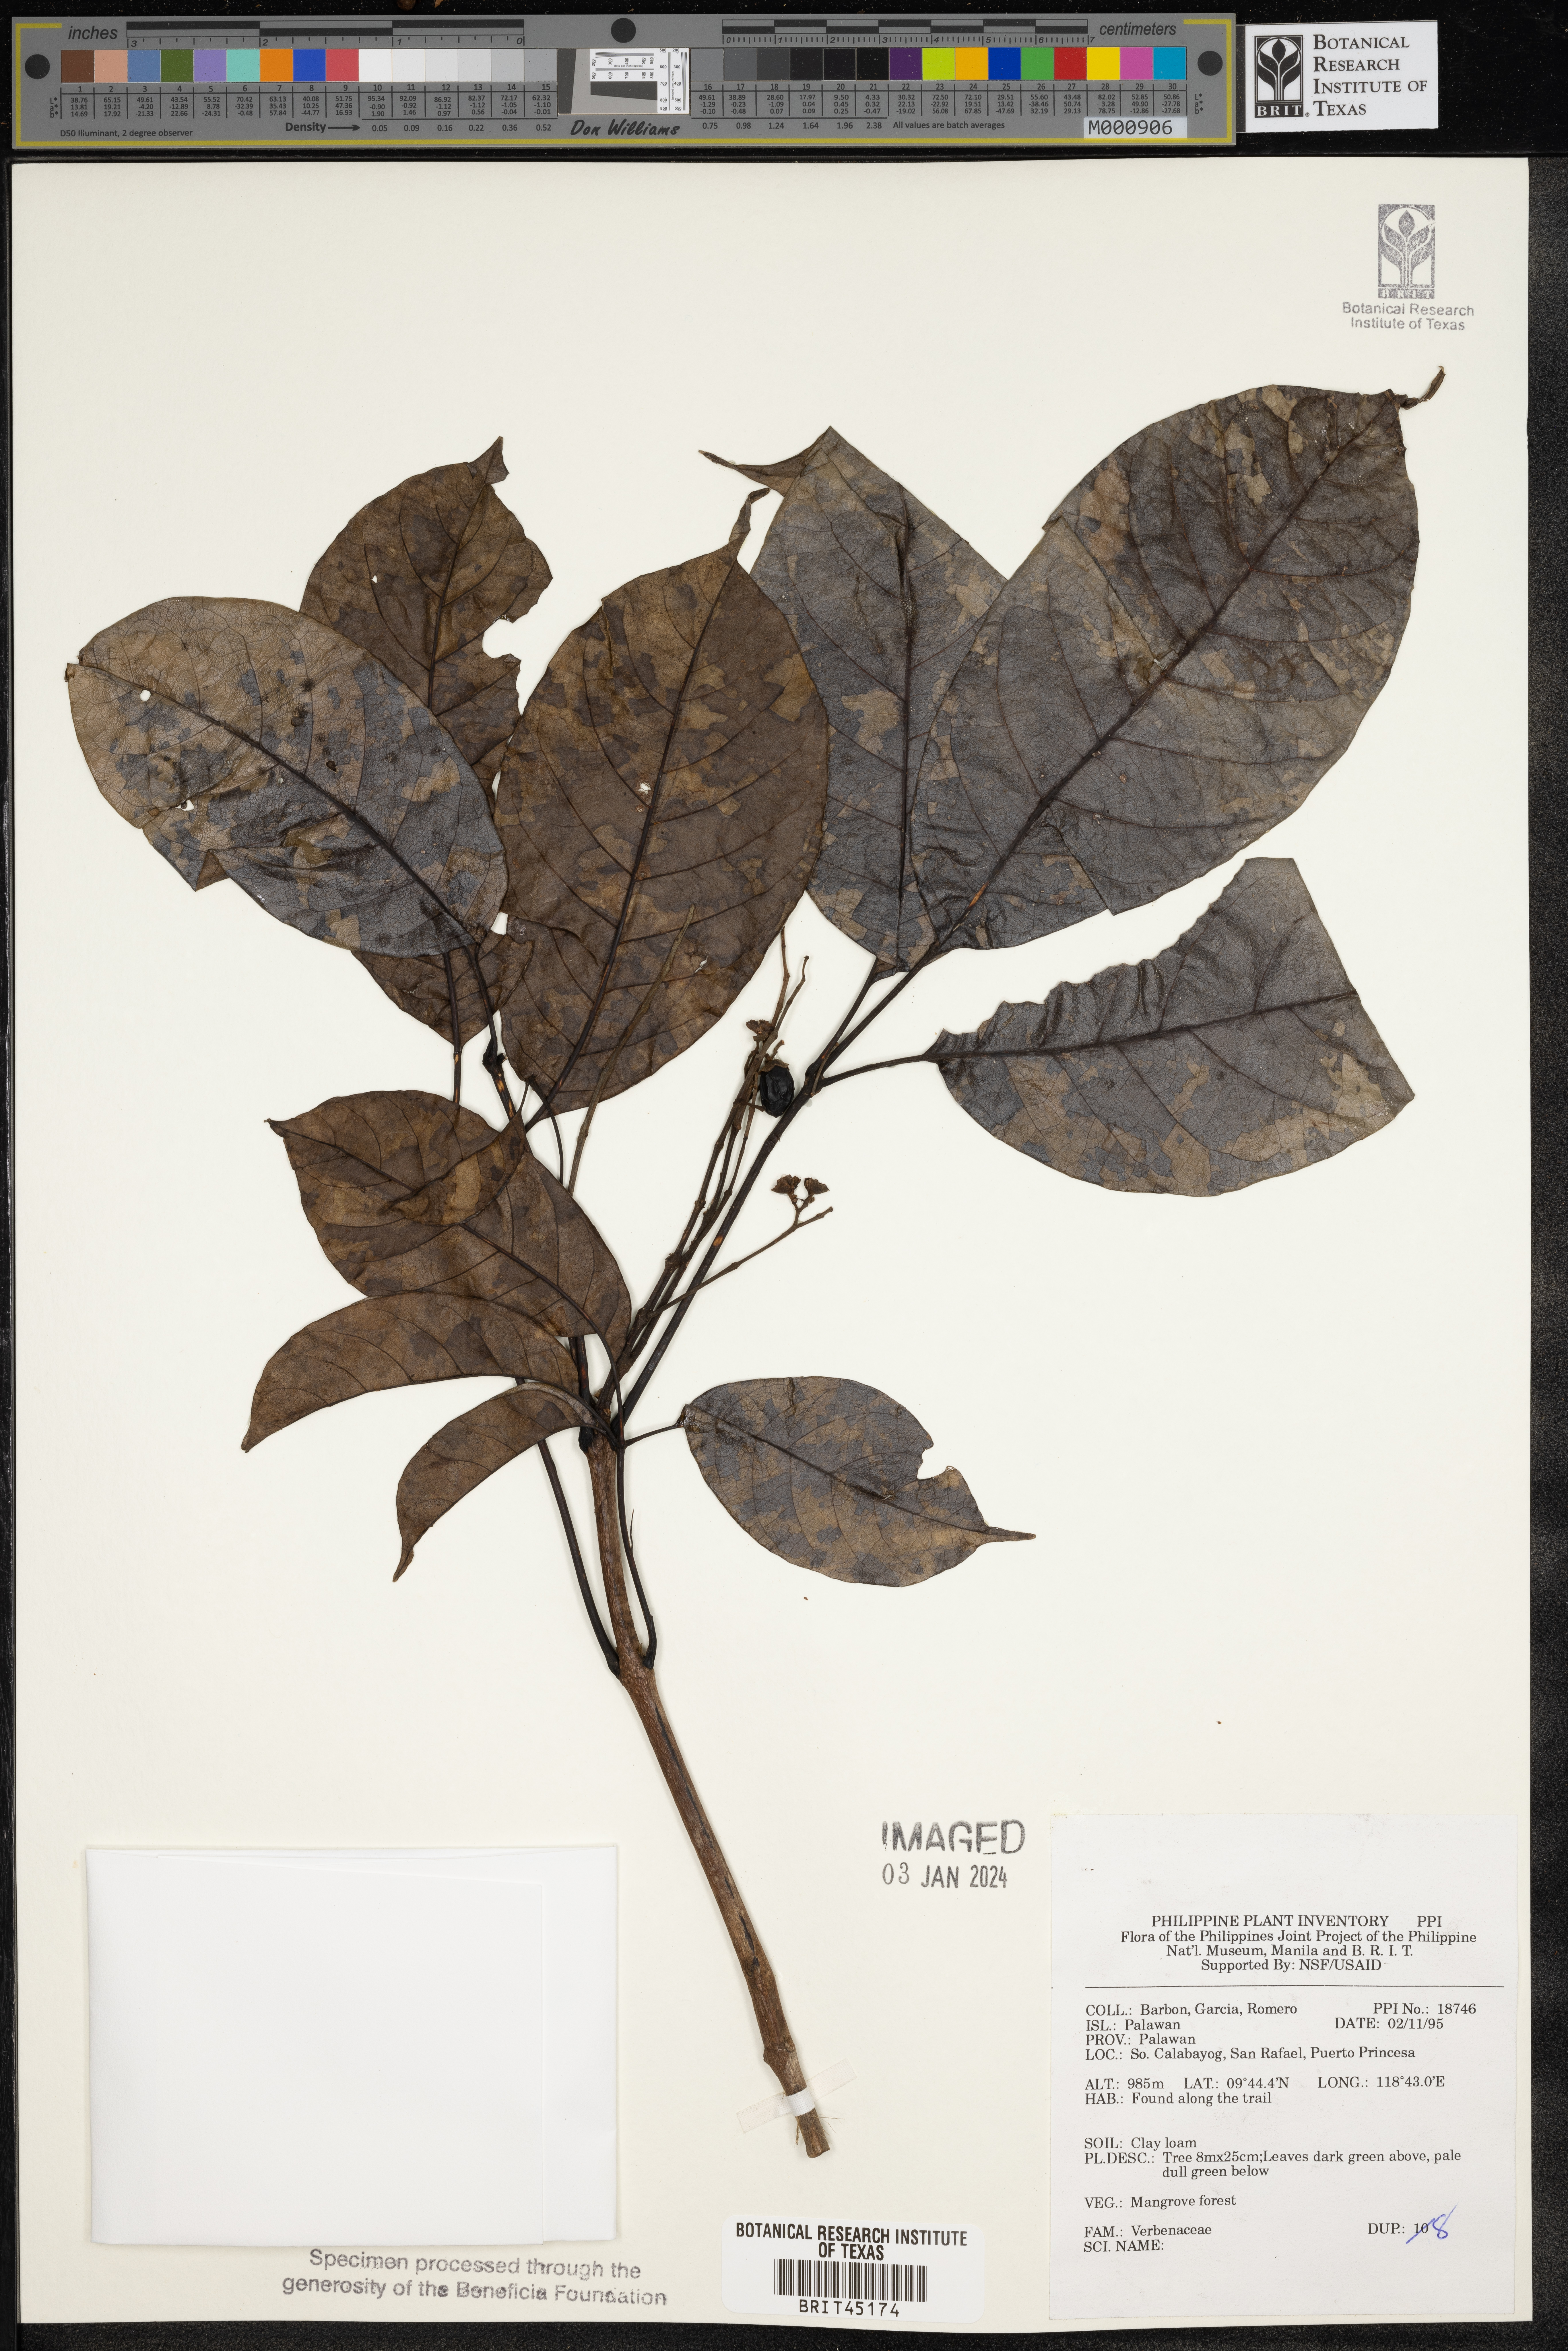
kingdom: Plantae
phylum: Tracheophyta
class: Magnoliopsida
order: Lamiales
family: Verbenaceae
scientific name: Verbenaceae
